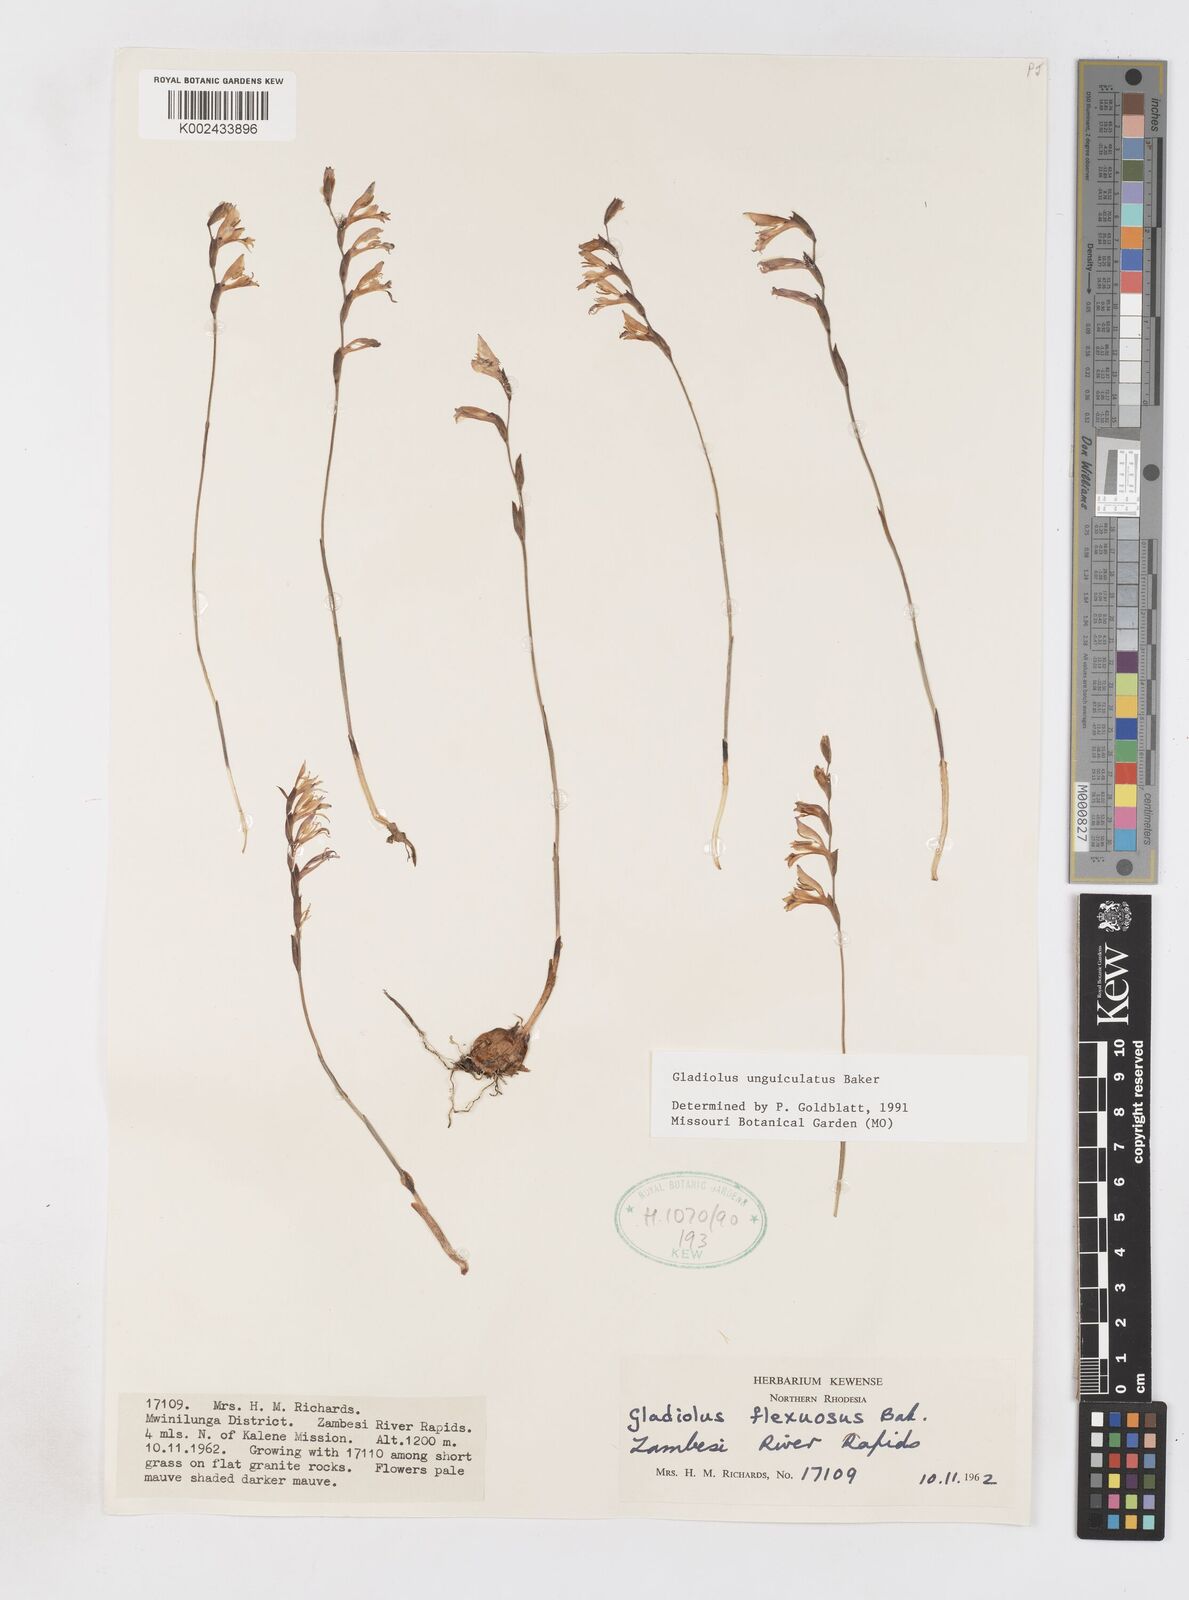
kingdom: Plantae
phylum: Tracheophyta
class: Liliopsida
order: Asparagales
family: Iridaceae
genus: Gladiolus
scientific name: Gladiolus unguiculatus
